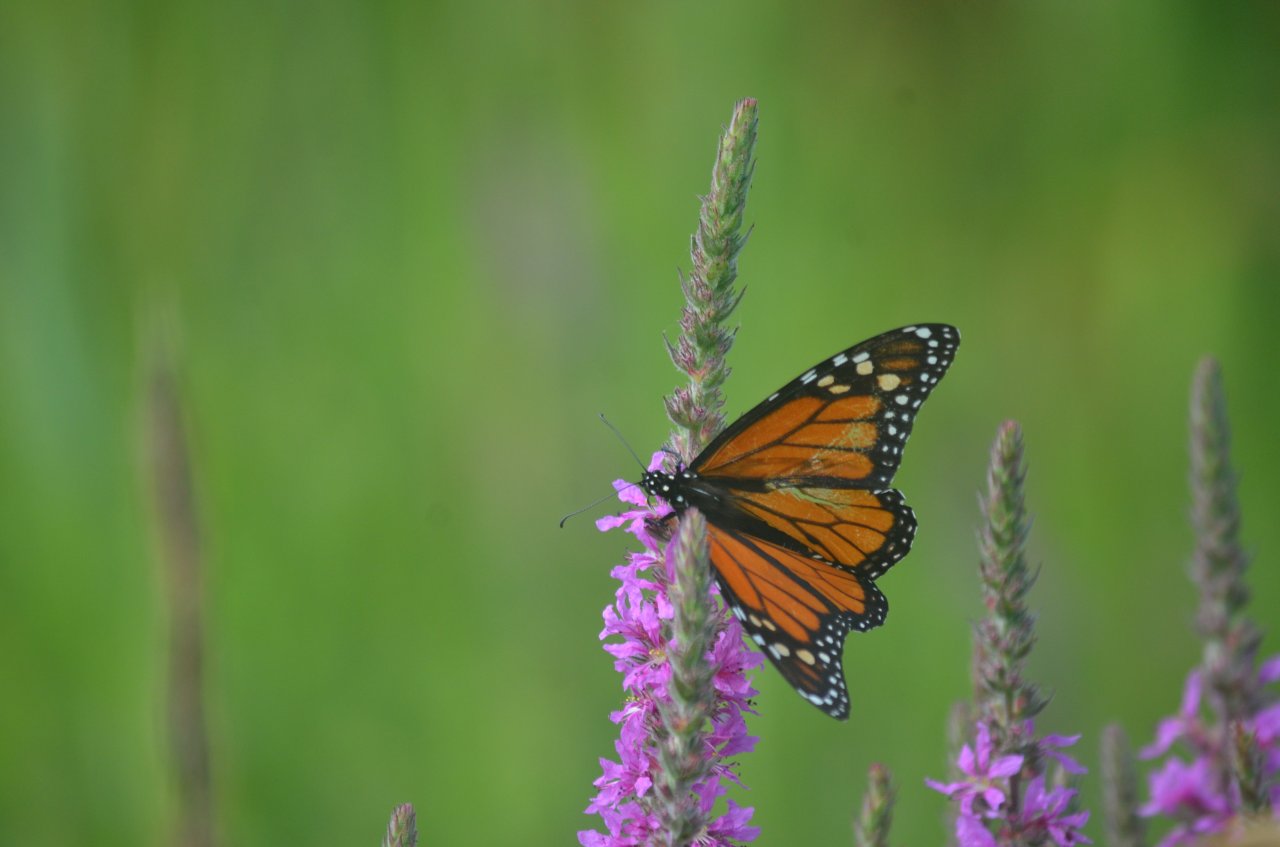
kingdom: Animalia
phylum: Arthropoda
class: Insecta
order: Lepidoptera
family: Nymphalidae
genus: Danaus
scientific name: Danaus plexippus
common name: Monarch
